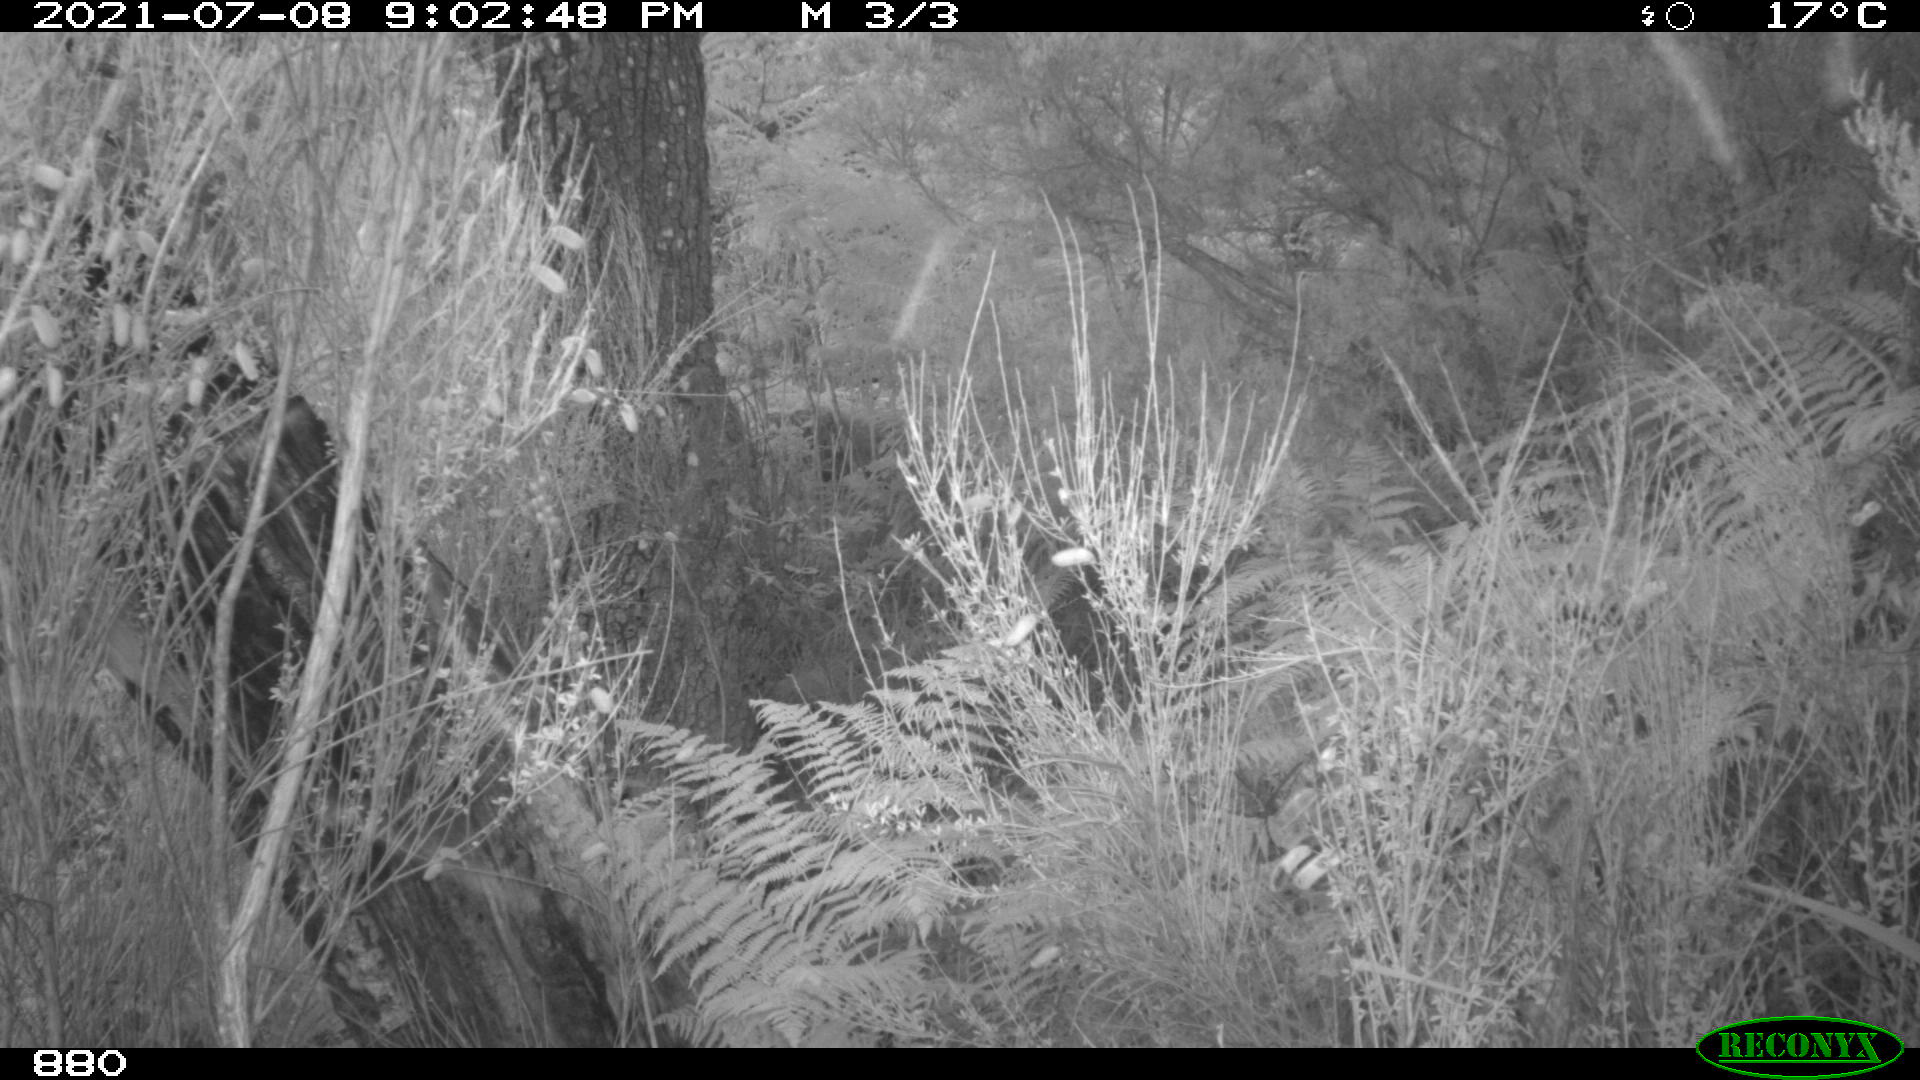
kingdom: Animalia
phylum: Chordata
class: Mammalia
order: Artiodactyla
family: Bovidae
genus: Bos
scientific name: Bos taurus
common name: Domesticated cattle
